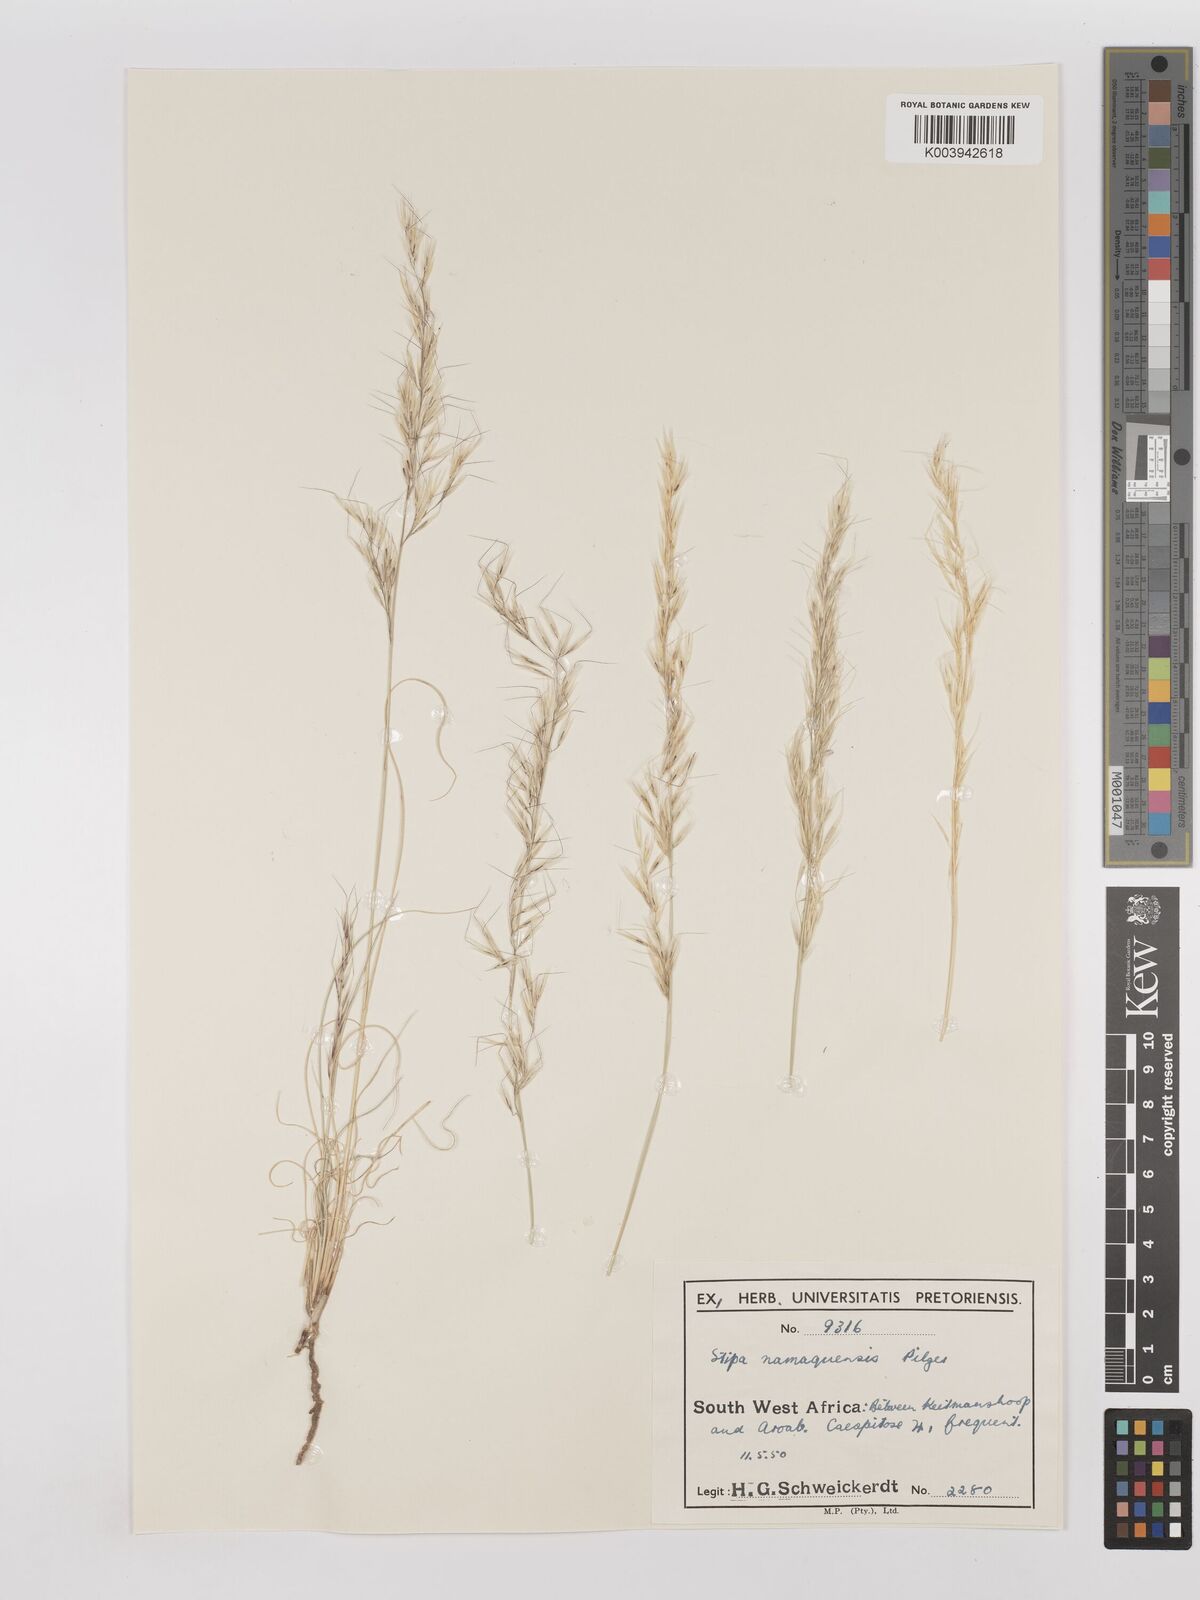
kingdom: Plantae
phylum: Tracheophyta
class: Liliopsida
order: Poales
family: Poaceae
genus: Stipagrostis
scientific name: Stipagrostis anomala
